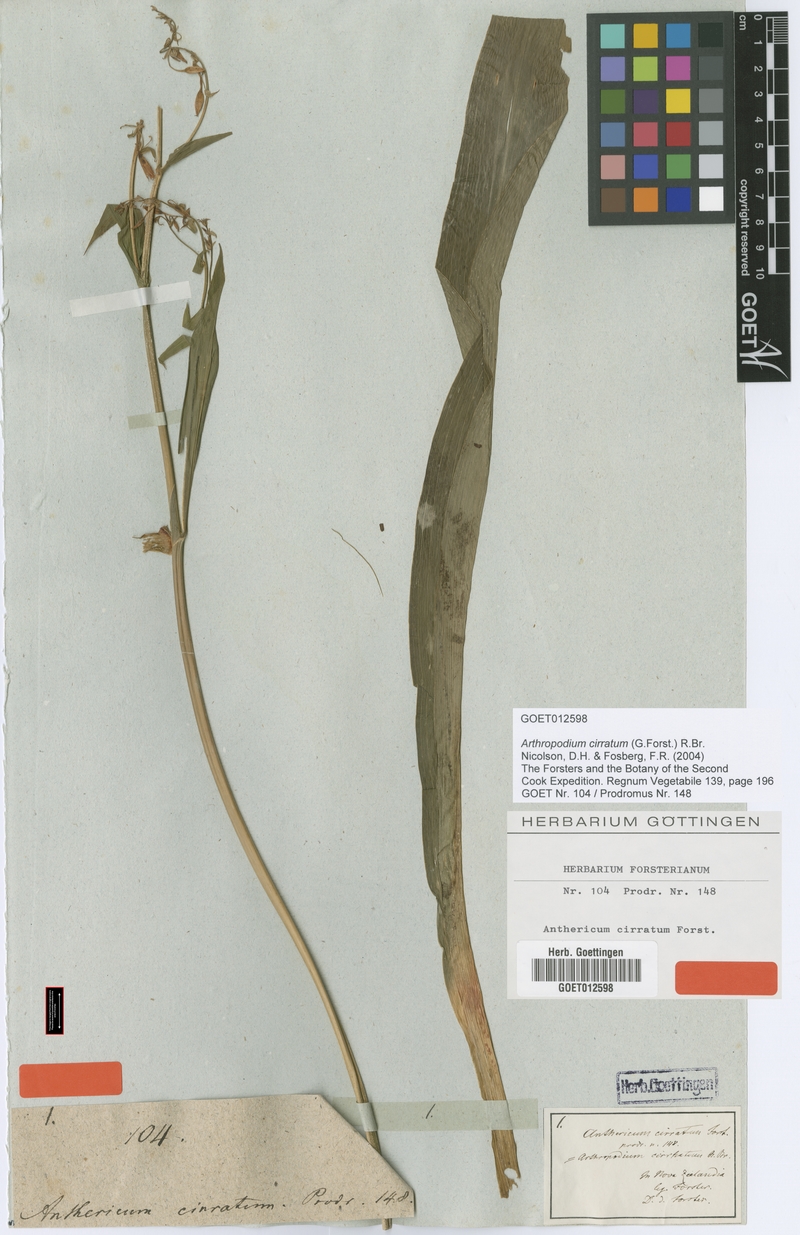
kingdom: Plantae
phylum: Tracheophyta
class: Liliopsida
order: Asparagales
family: Asparagaceae
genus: Arthropodium
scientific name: Arthropodium cirratum
